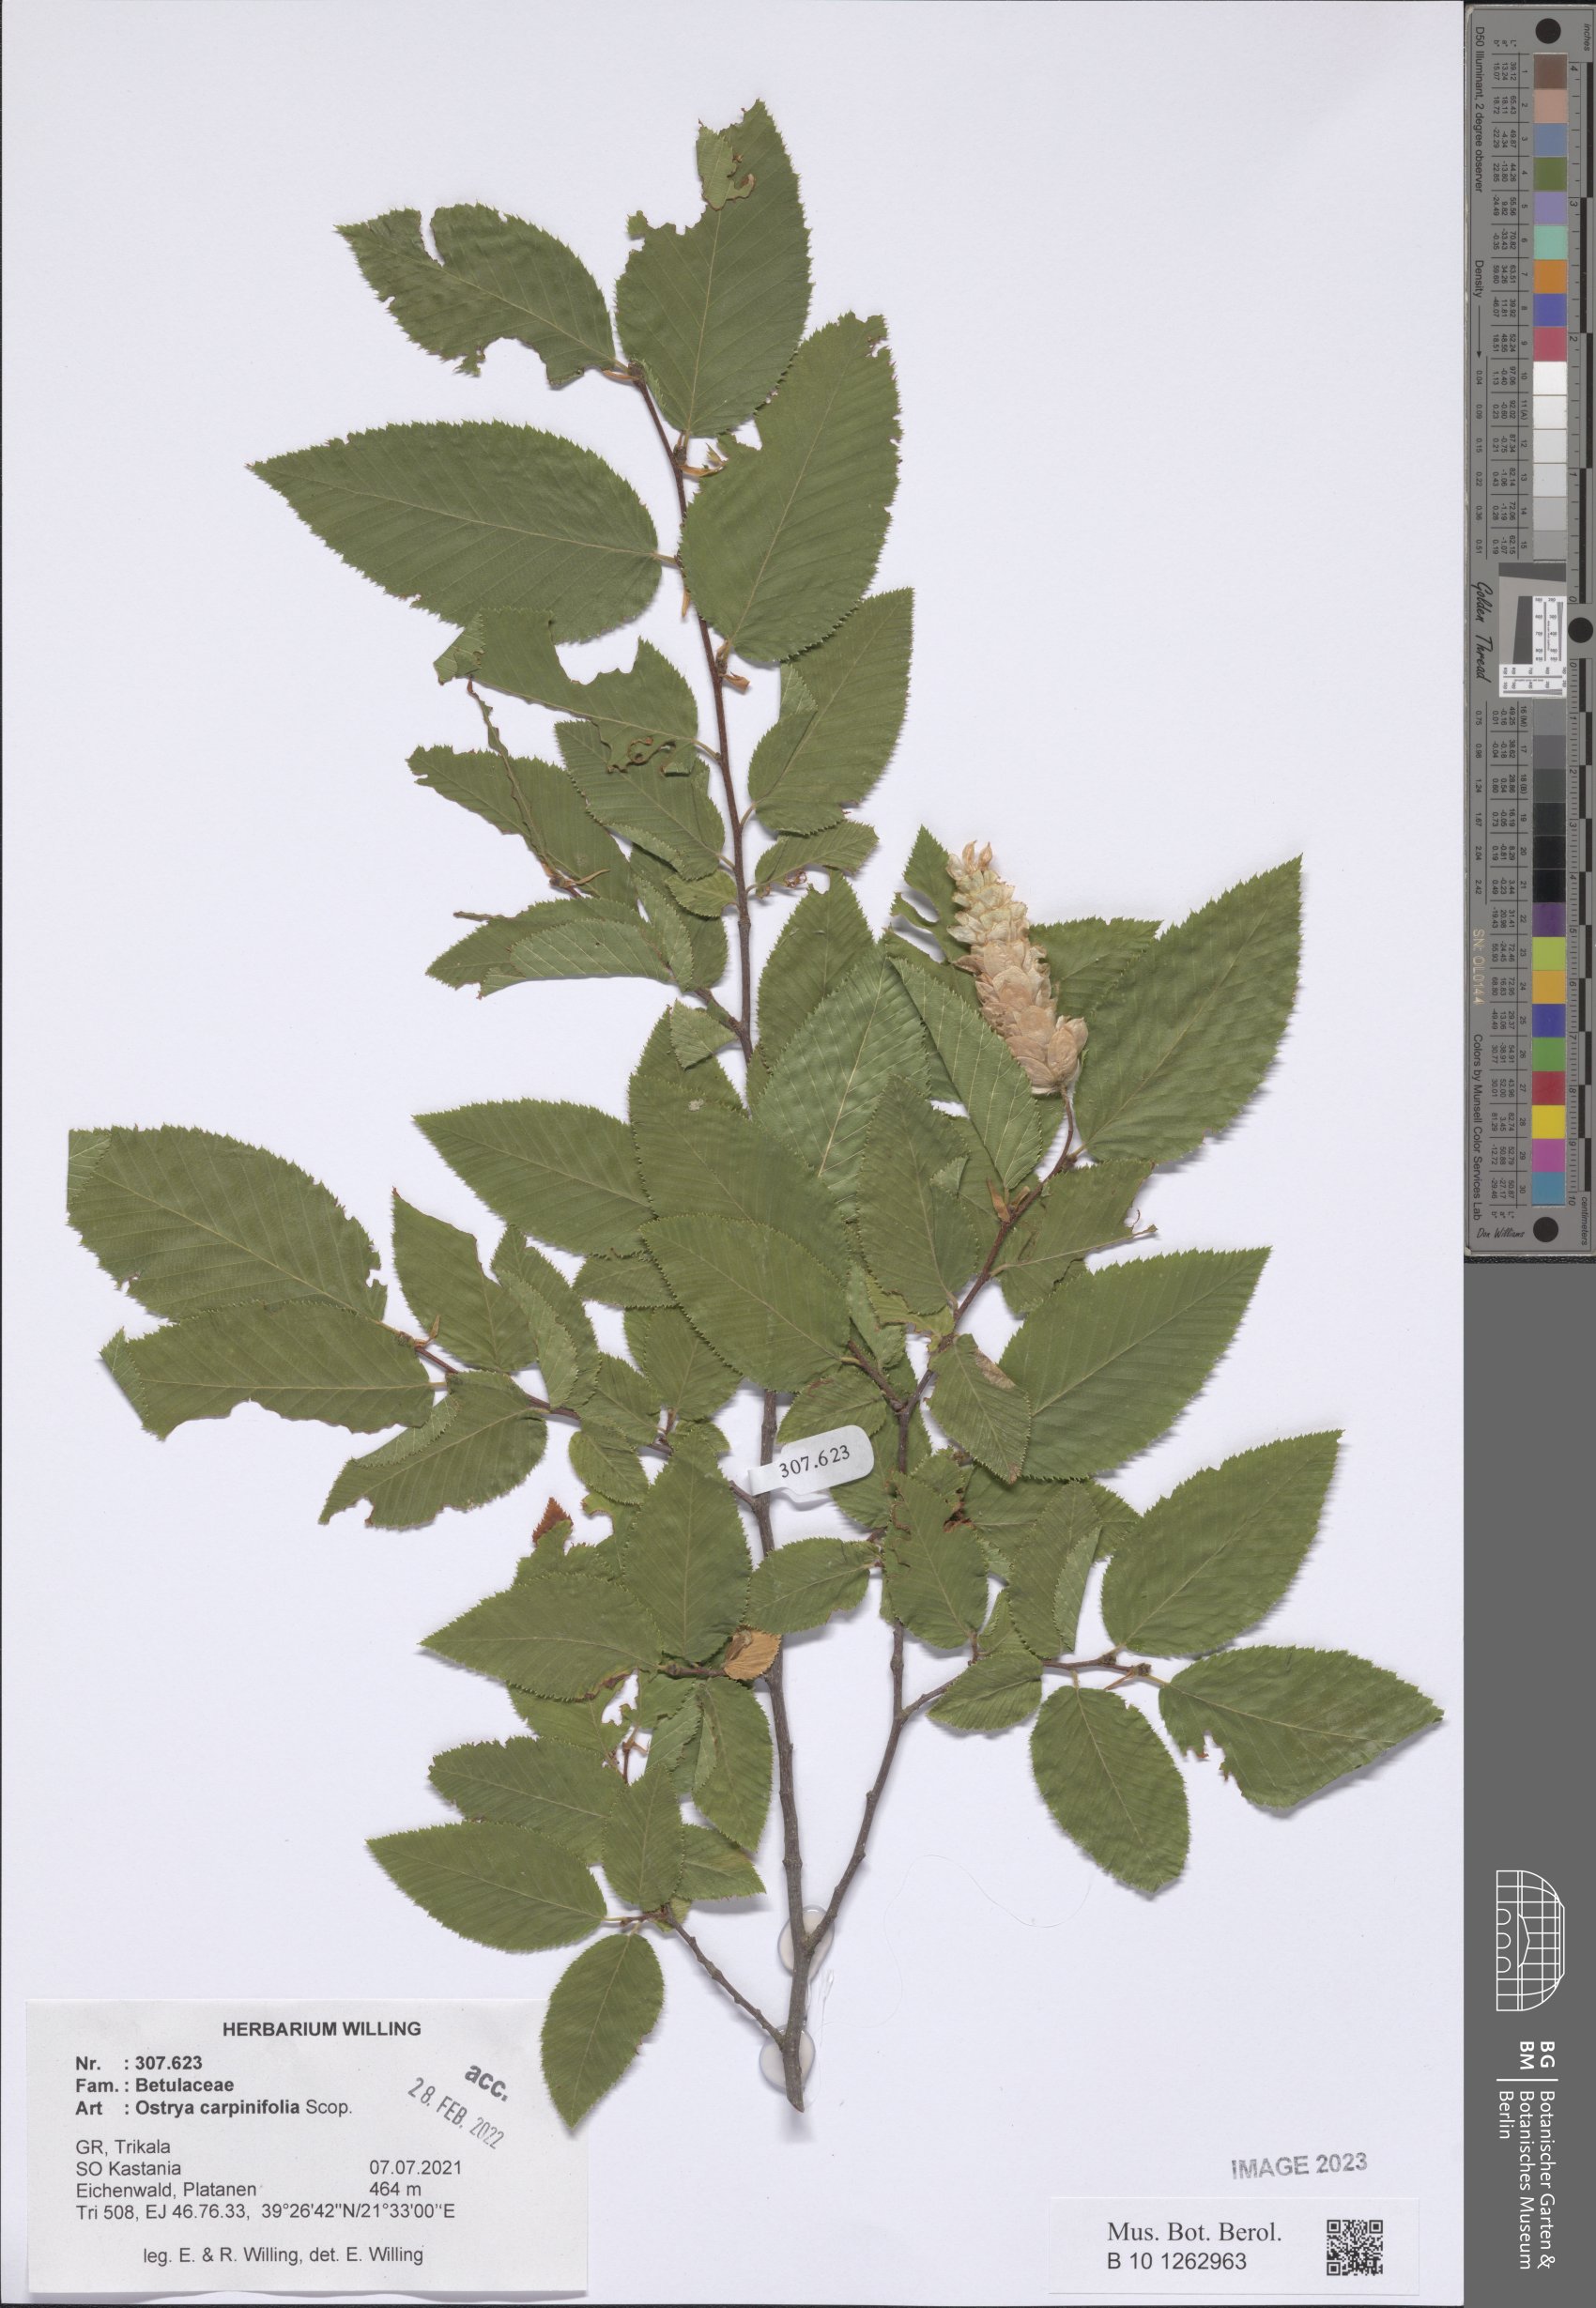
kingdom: Plantae
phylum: Tracheophyta
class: Magnoliopsida
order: Fagales
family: Betulaceae
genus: Ostrya
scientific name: Ostrya carpinifolia
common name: European hop-hornbeam
